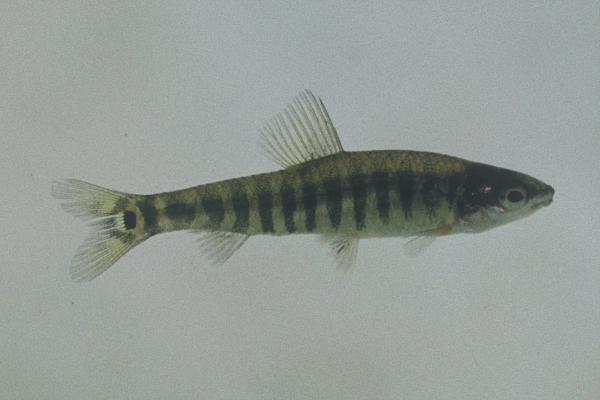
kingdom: Animalia
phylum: Chordata
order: Characiformes
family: Distichodontidae
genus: Nannocharax
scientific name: Nannocharax machadoi
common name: Dwarf citharine
